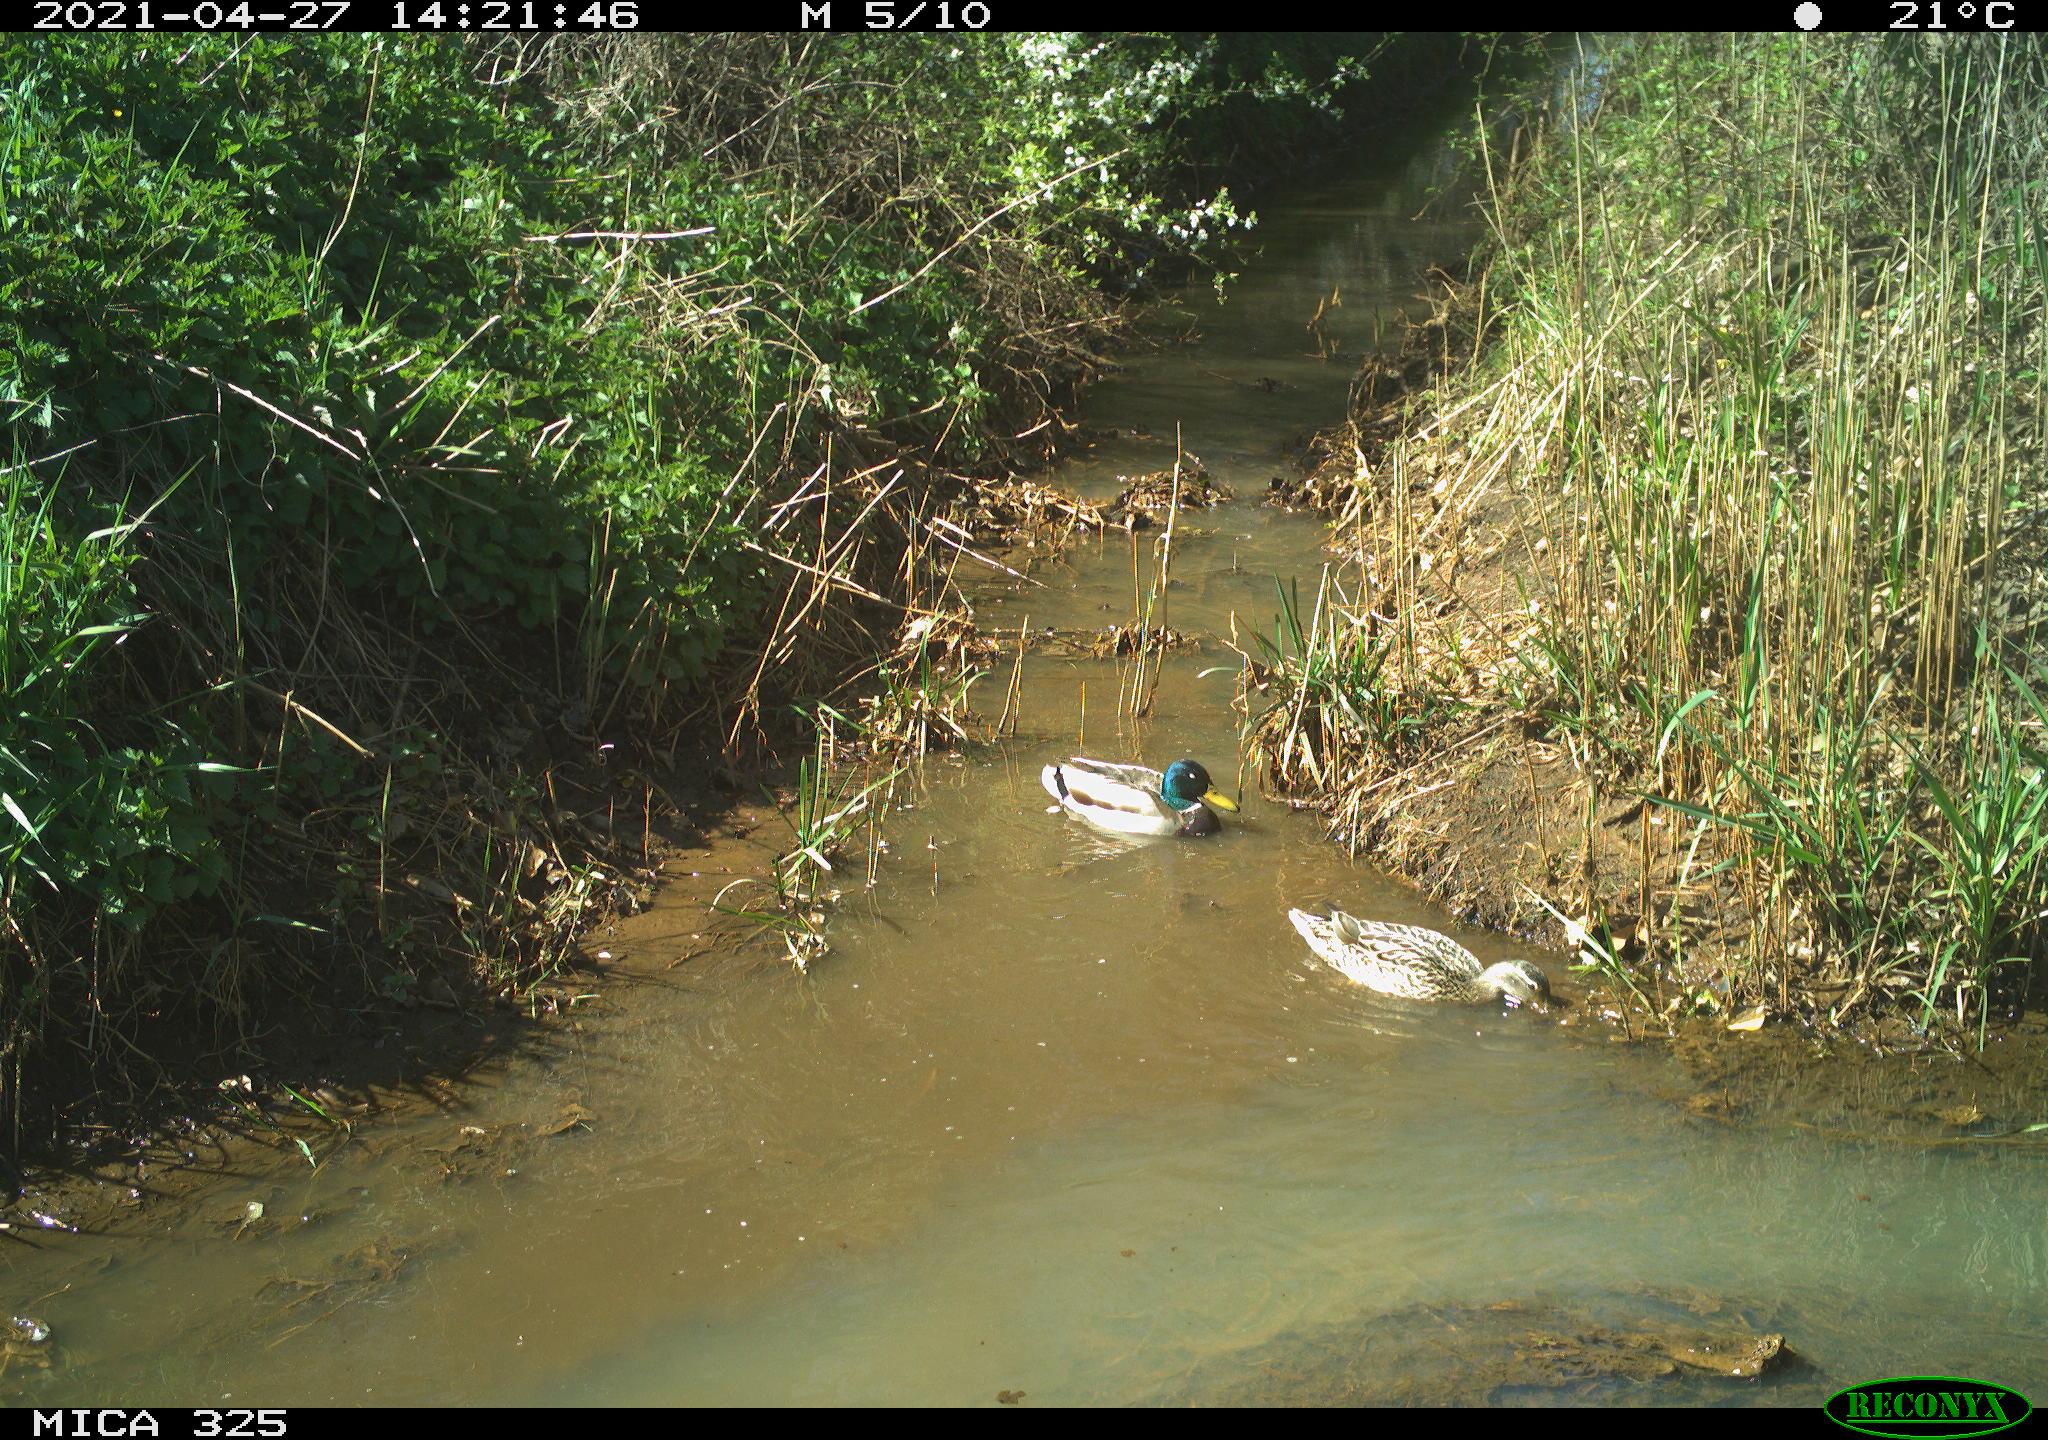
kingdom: Animalia
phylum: Chordata
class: Aves
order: Anseriformes
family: Anatidae
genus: Anas
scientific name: Anas platyrhynchos
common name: Mallard
